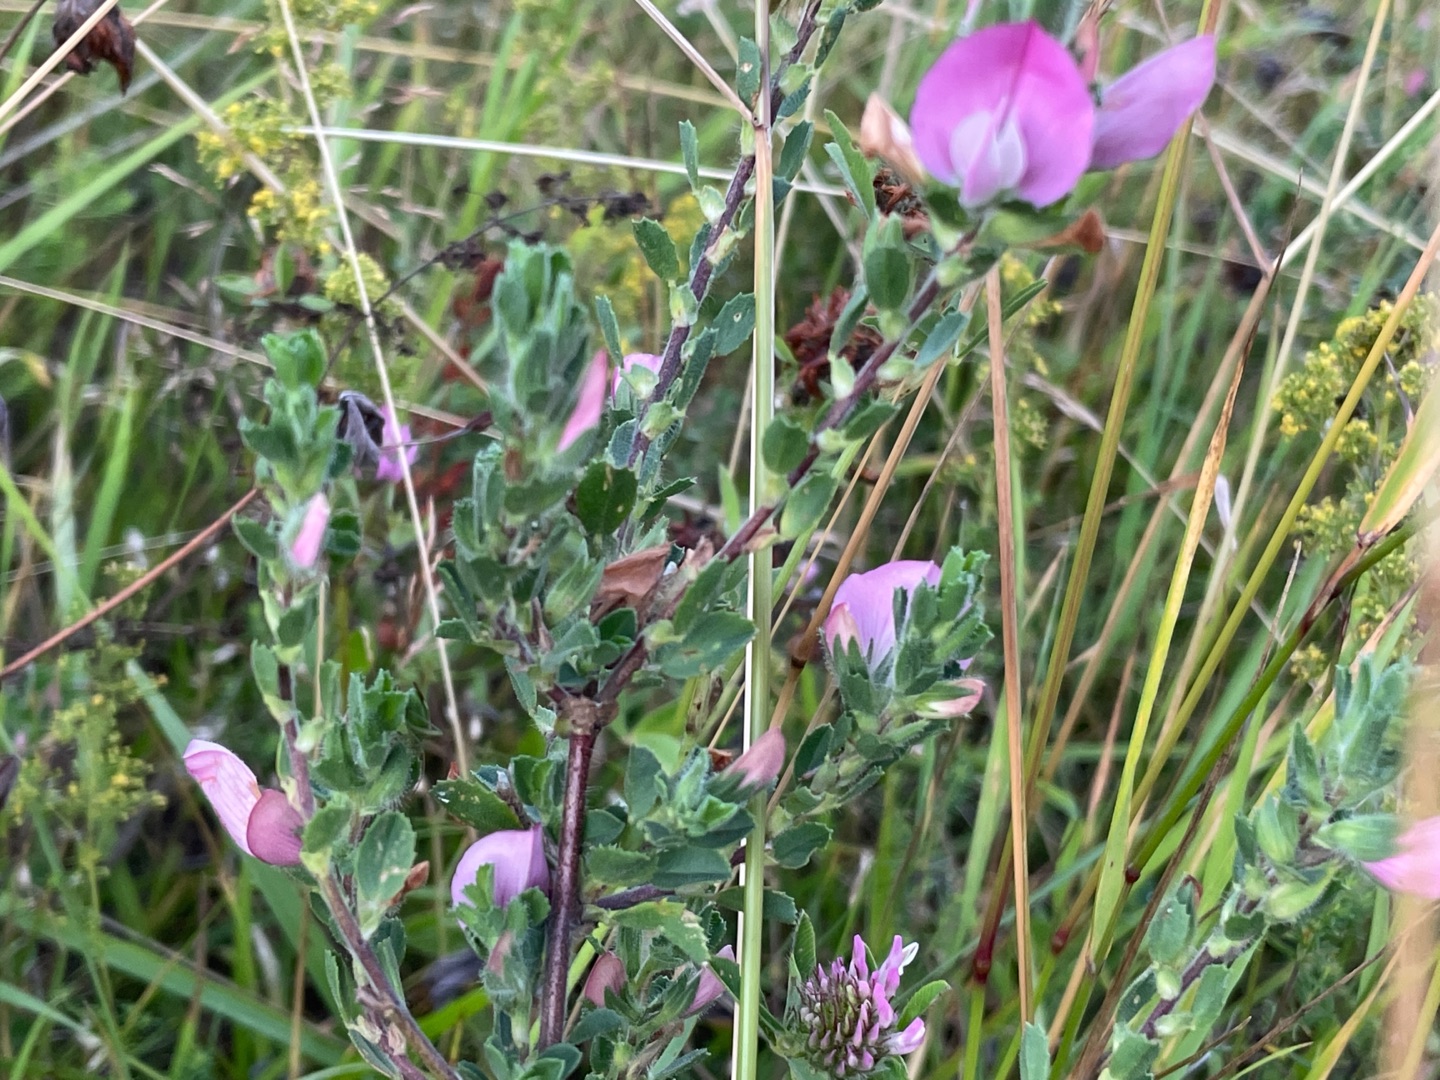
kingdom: Plantae
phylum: Tracheophyta
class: Magnoliopsida
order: Fabales
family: Fabaceae
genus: Ononis
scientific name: Ononis spinosa
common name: Mark-krageklo
